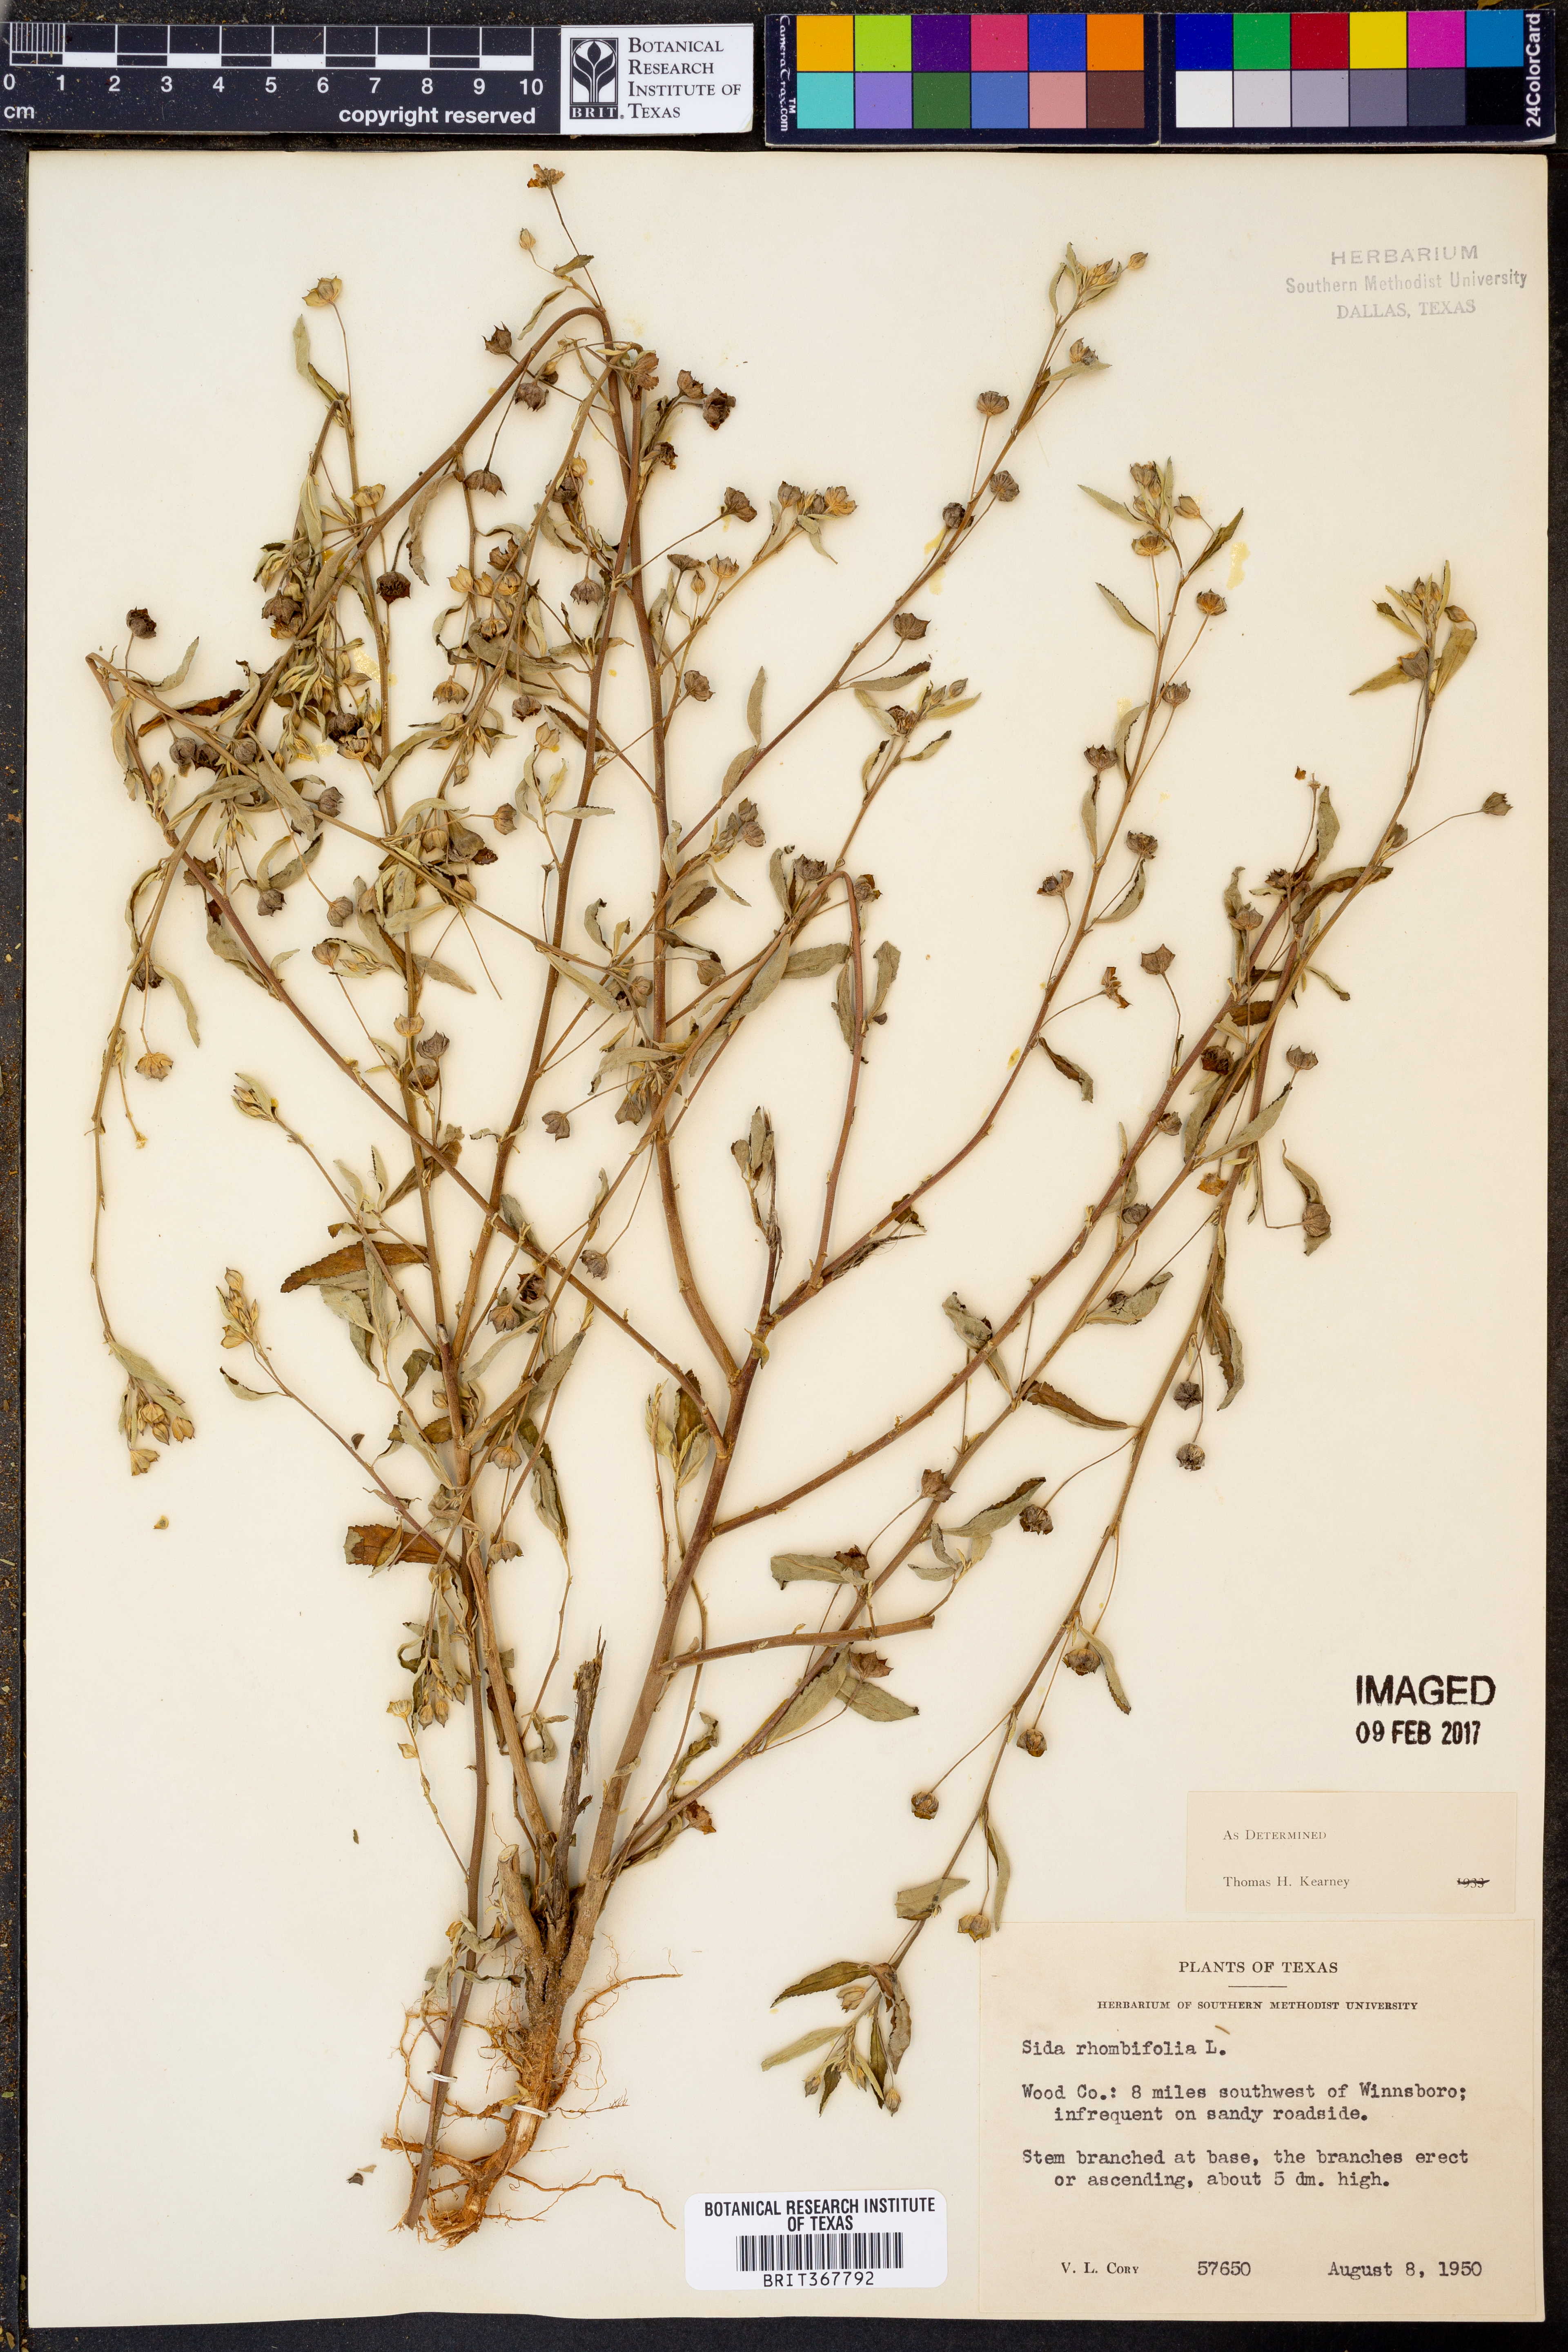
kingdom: Plantae
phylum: Tracheophyta
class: Magnoliopsida
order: Malvales
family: Malvaceae
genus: Sida
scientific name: Sida rhombifolia
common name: Queensland-hemp
